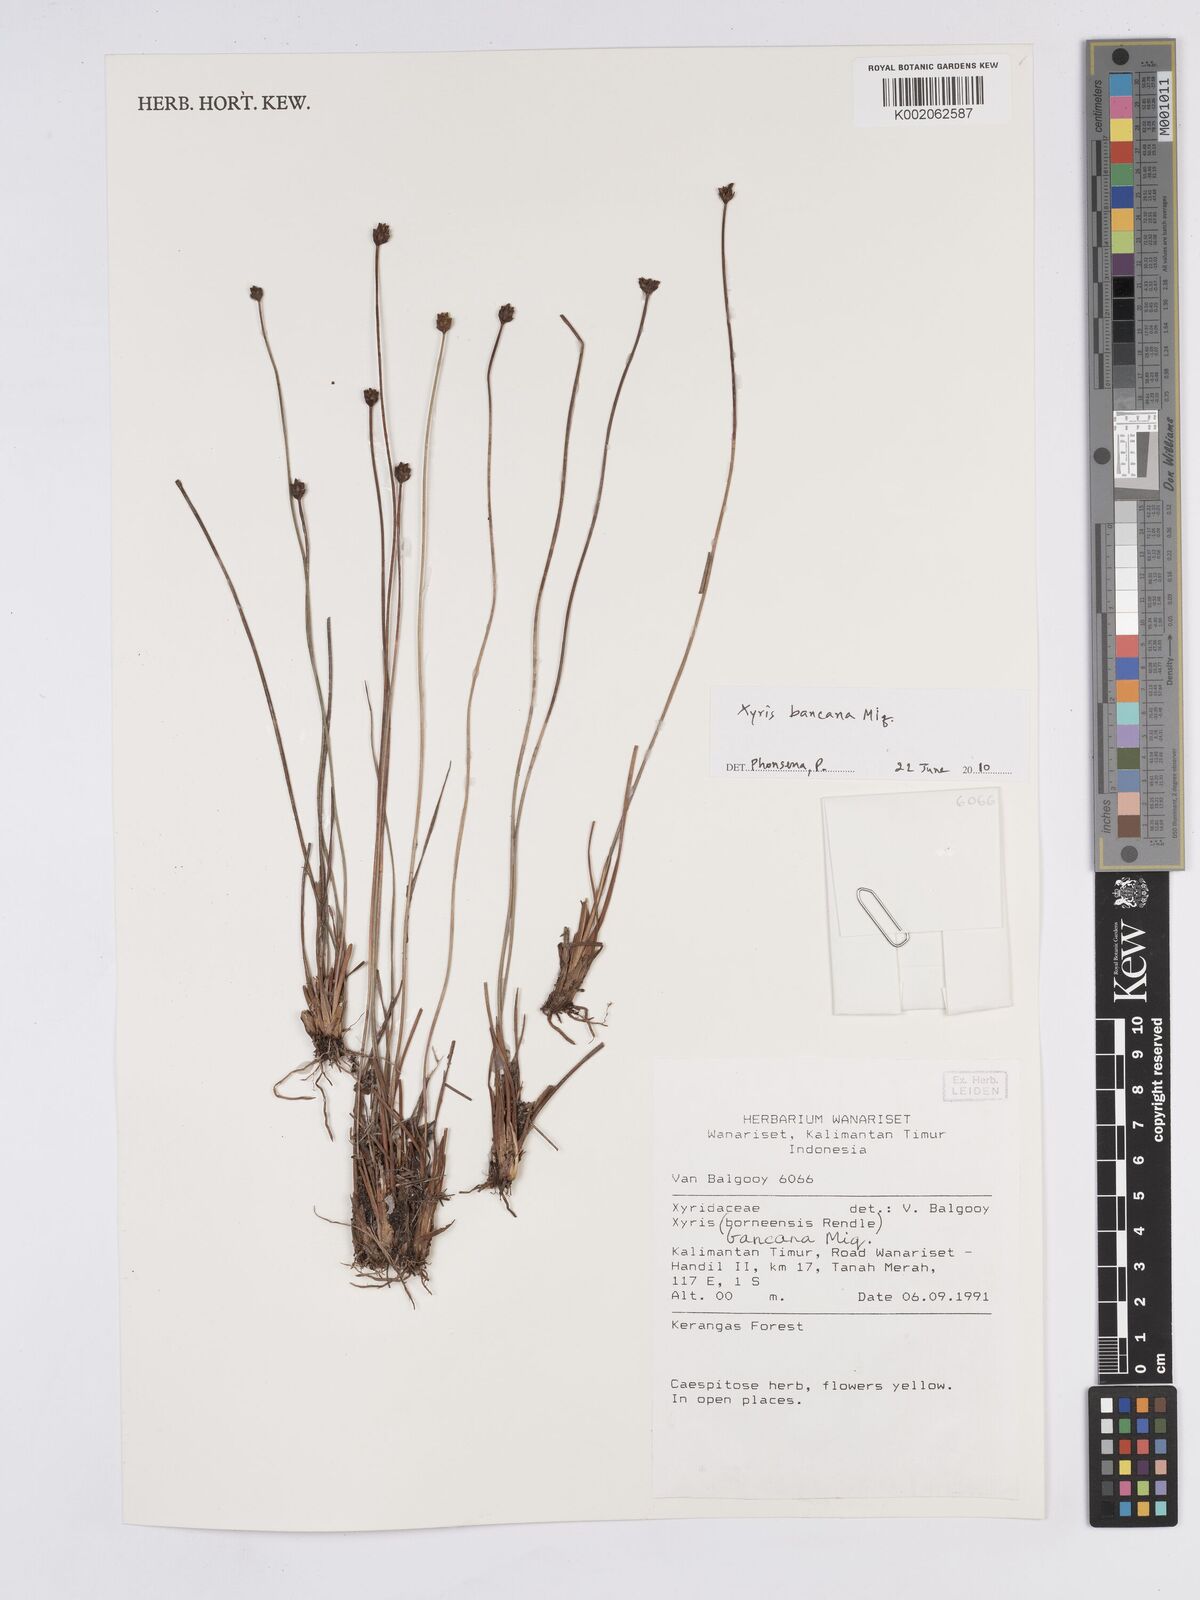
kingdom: Plantae
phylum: Tracheophyta
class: Liliopsida
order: Poales
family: Xyridaceae
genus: Xyris
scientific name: Xyris bancana
